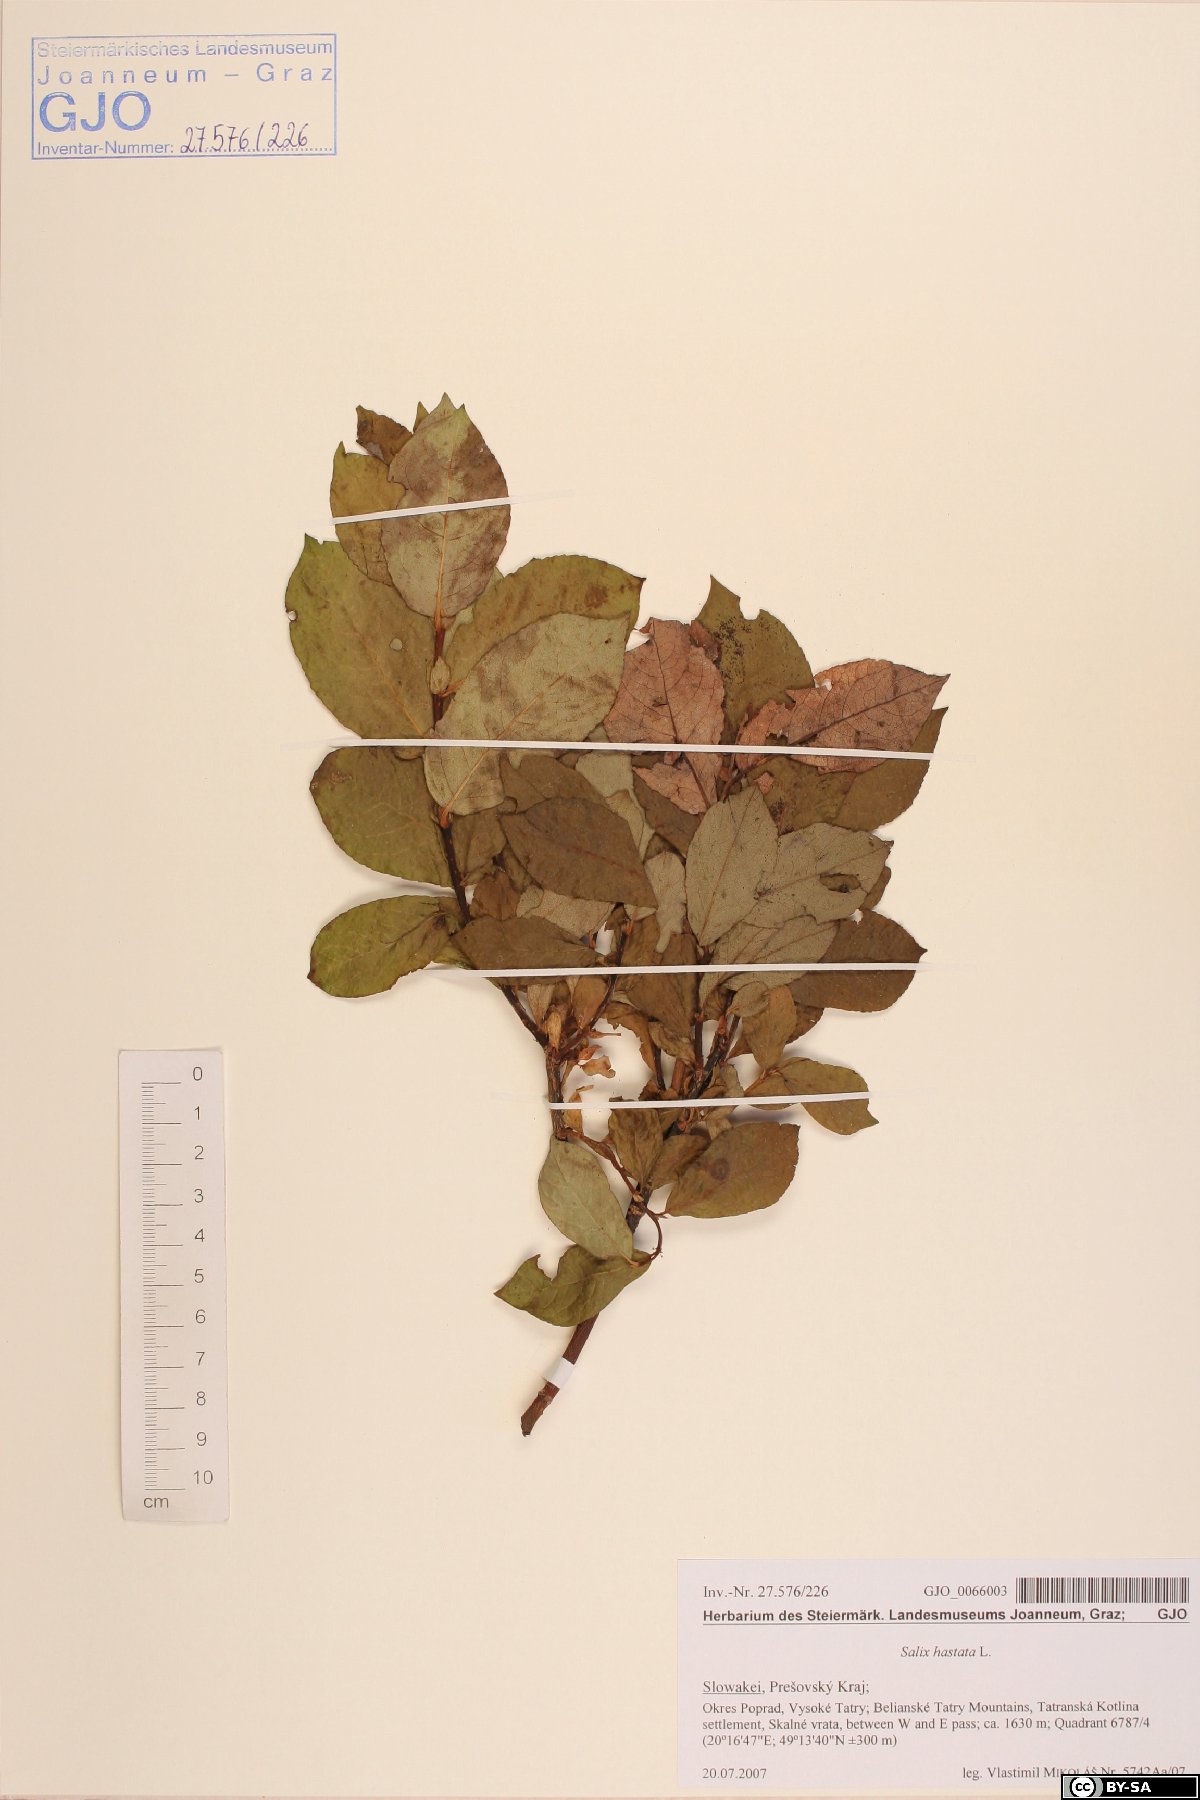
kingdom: Plantae
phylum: Tracheophyta
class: Magnoliopsida
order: Malpighiales
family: Salicaceae
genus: Salix
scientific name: Salix hastata
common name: Halberd willow
